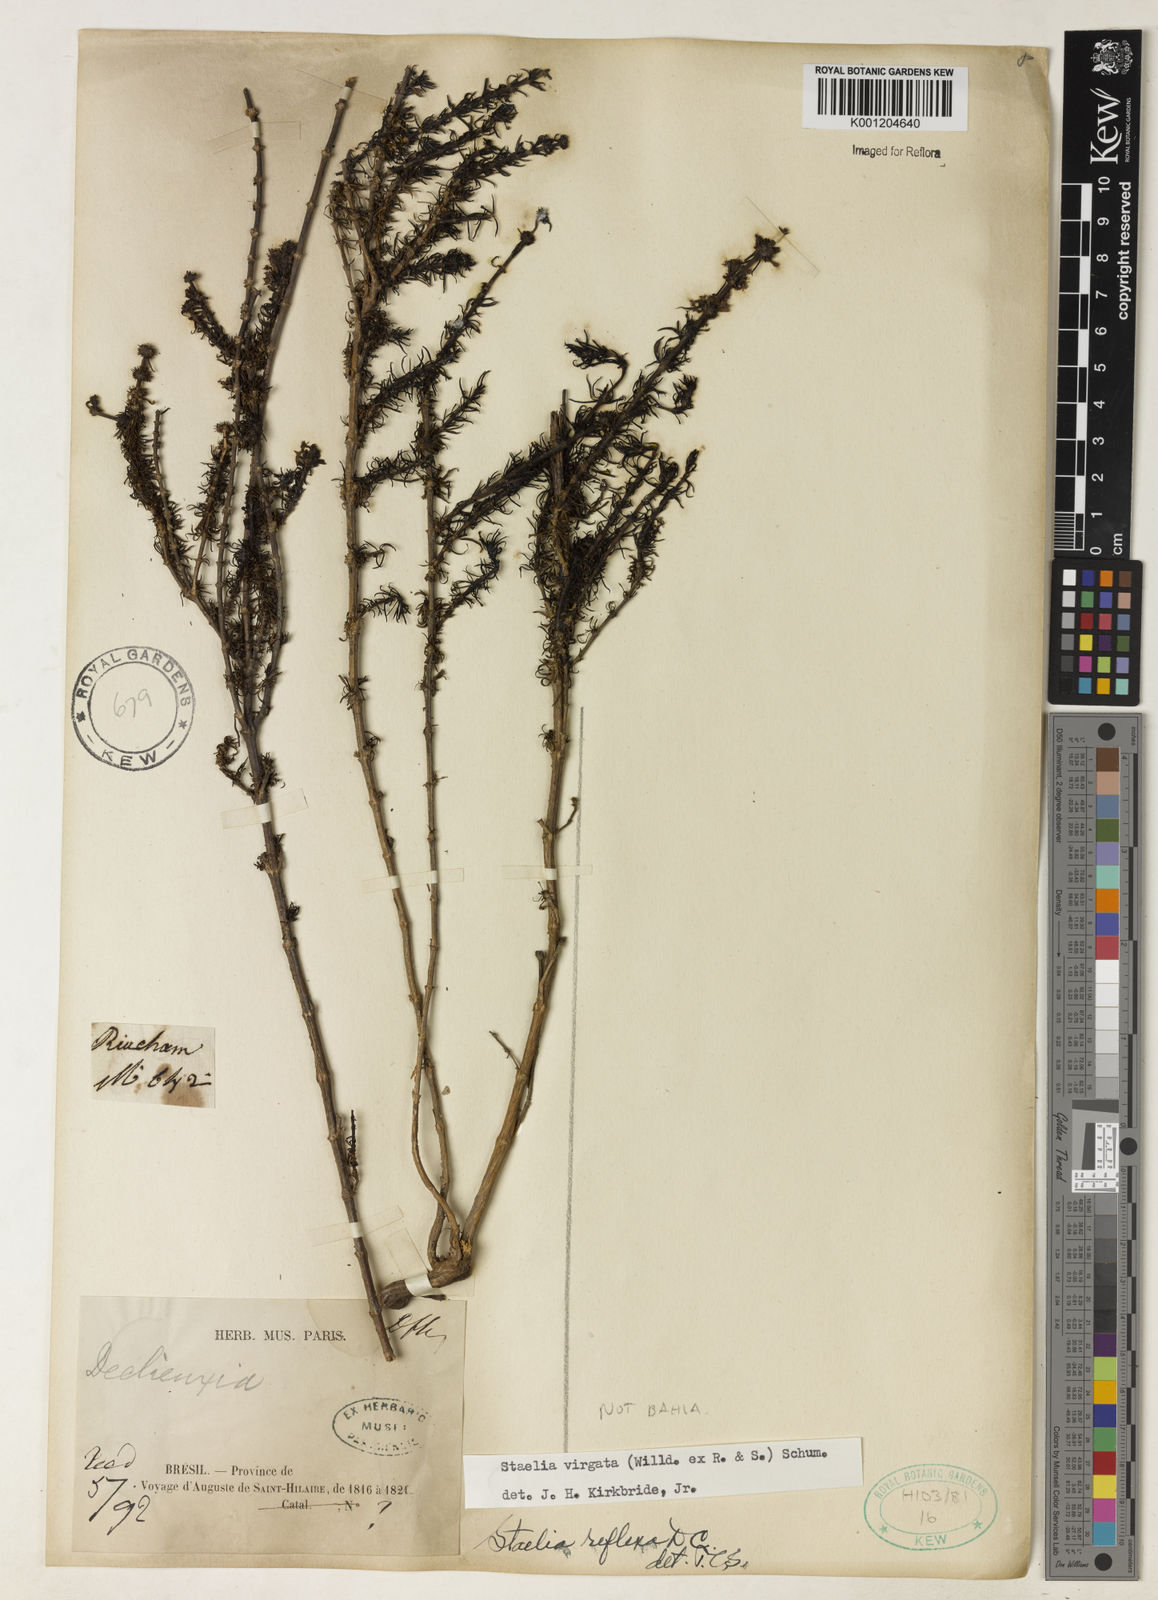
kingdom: Plantae
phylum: Tracheophyta
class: Magnoliopsida
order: Gentianales
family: Rubiaceae
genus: Staelia
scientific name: Staelia virgata
